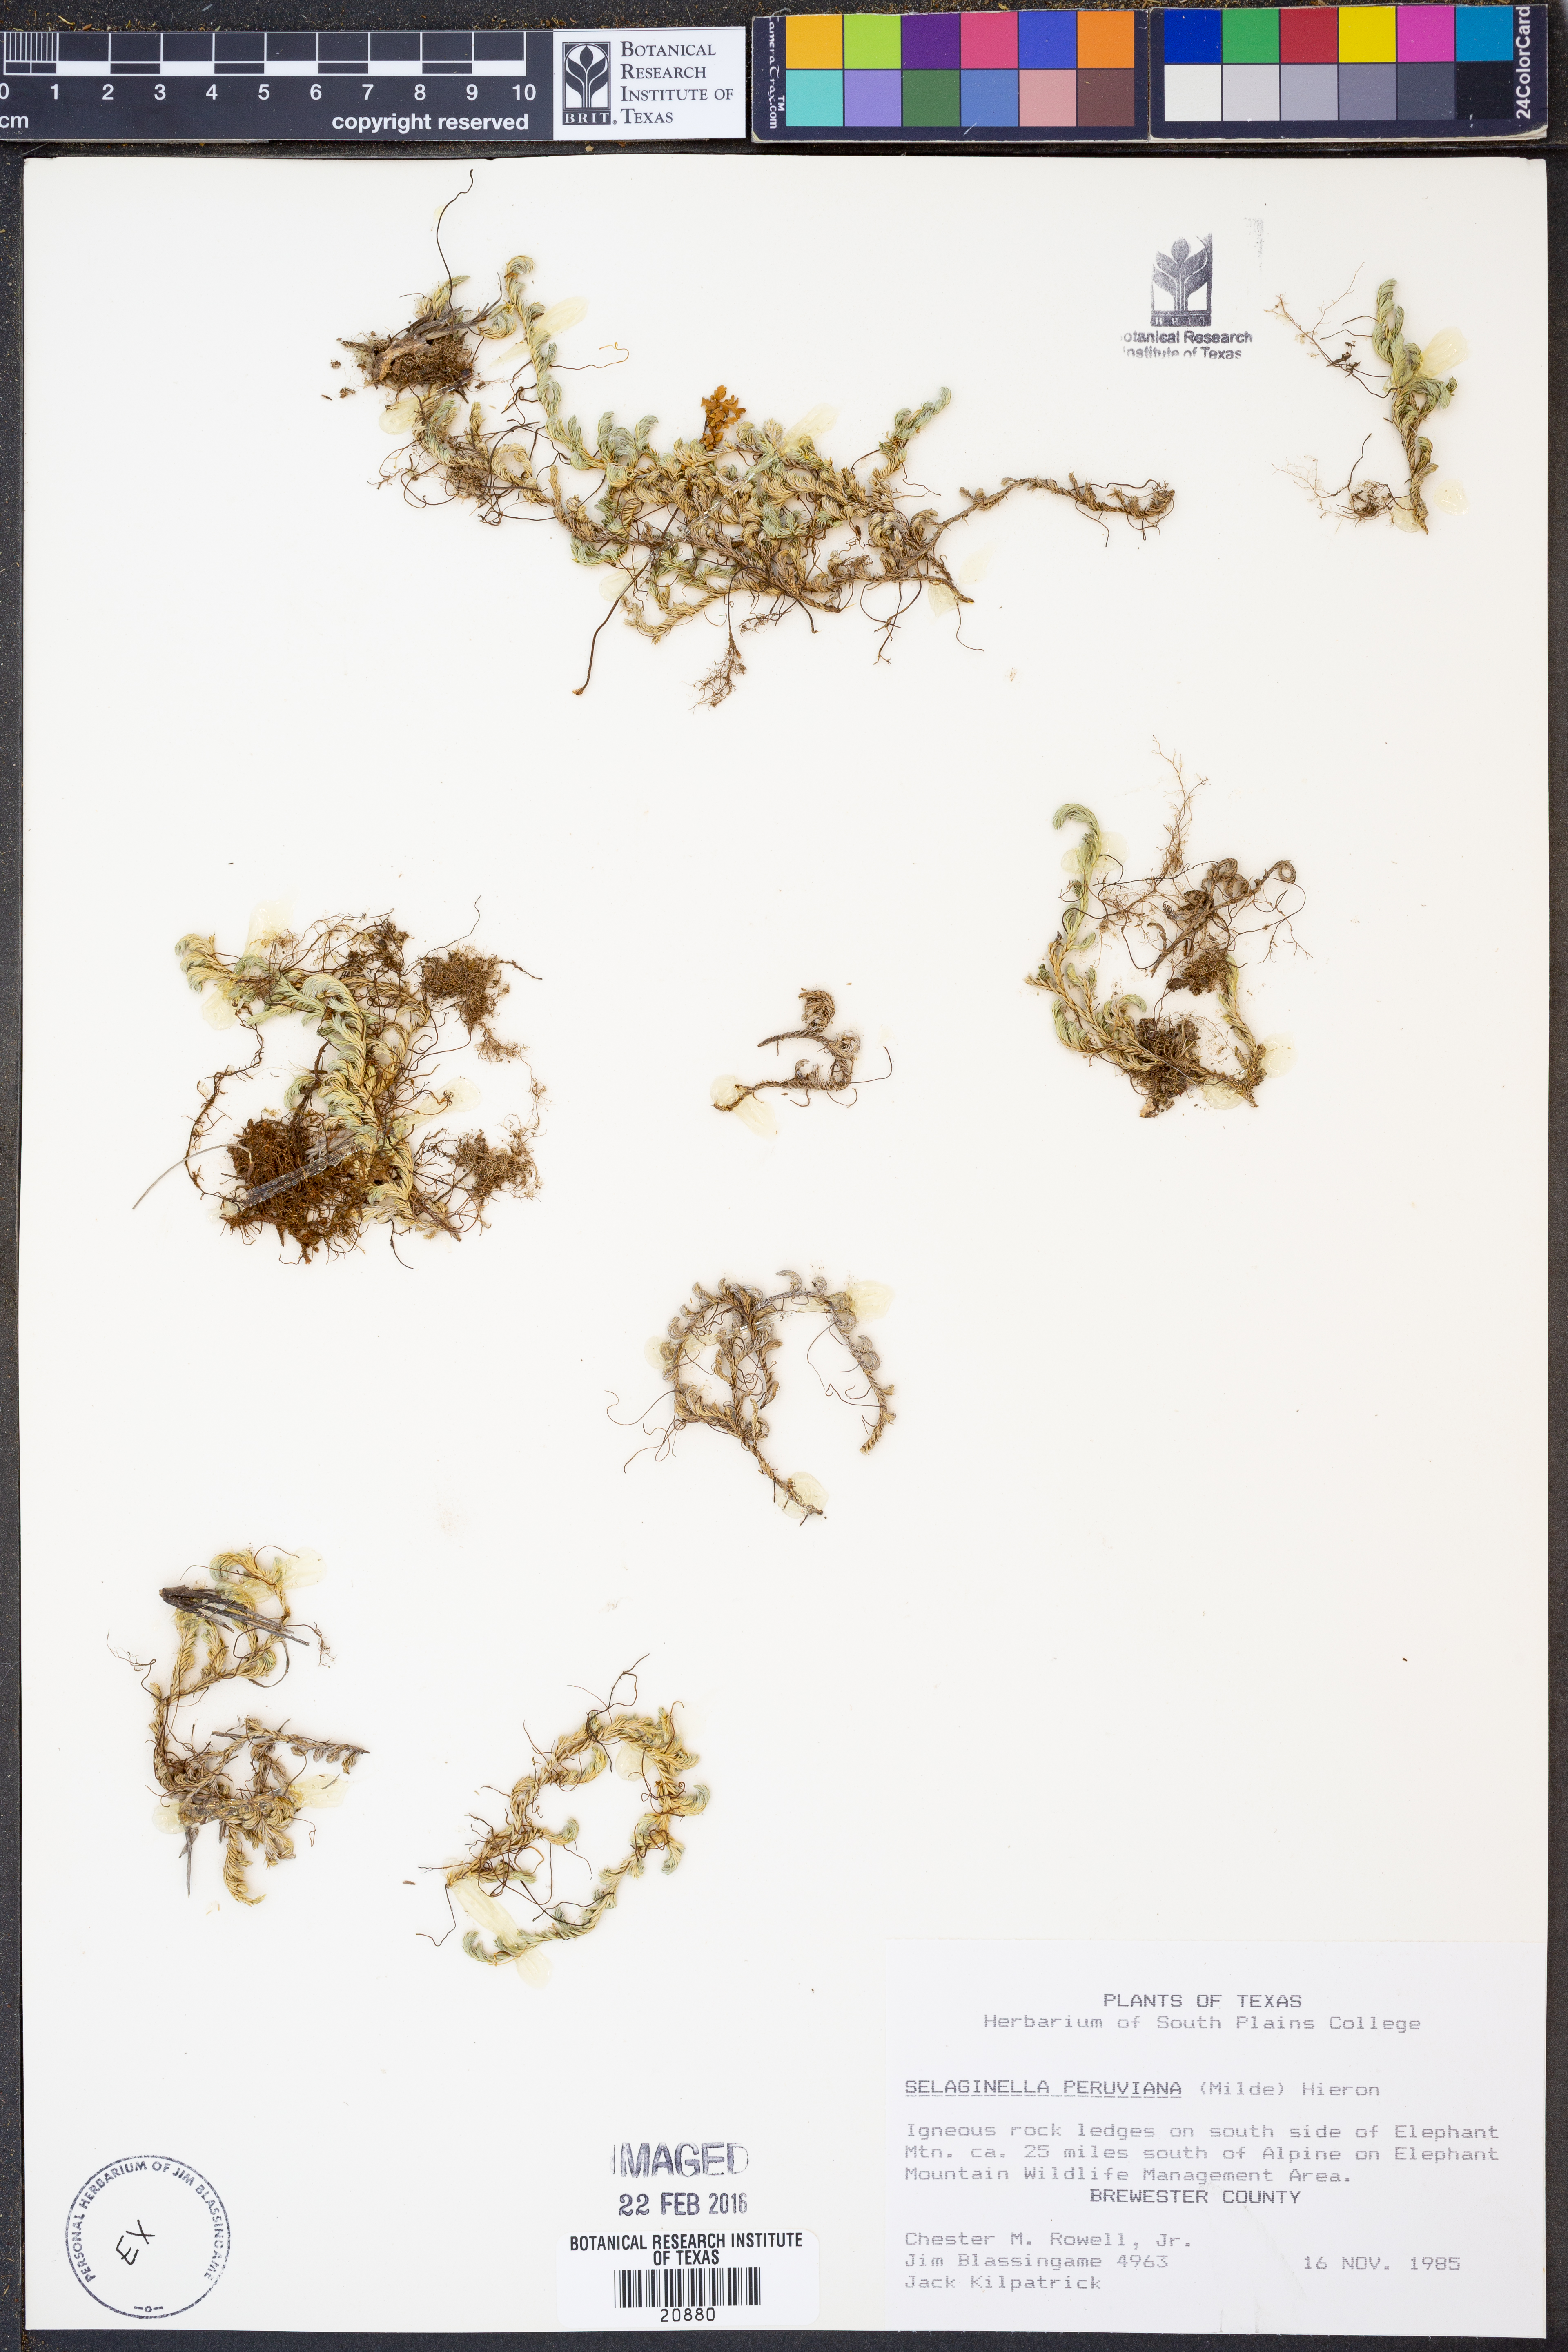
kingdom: Plantae
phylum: Tracheophyta
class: Lycopodiopsida
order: Selaginellales
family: Selaginellaceae
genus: Selaginella
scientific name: Selaginella peruviana
